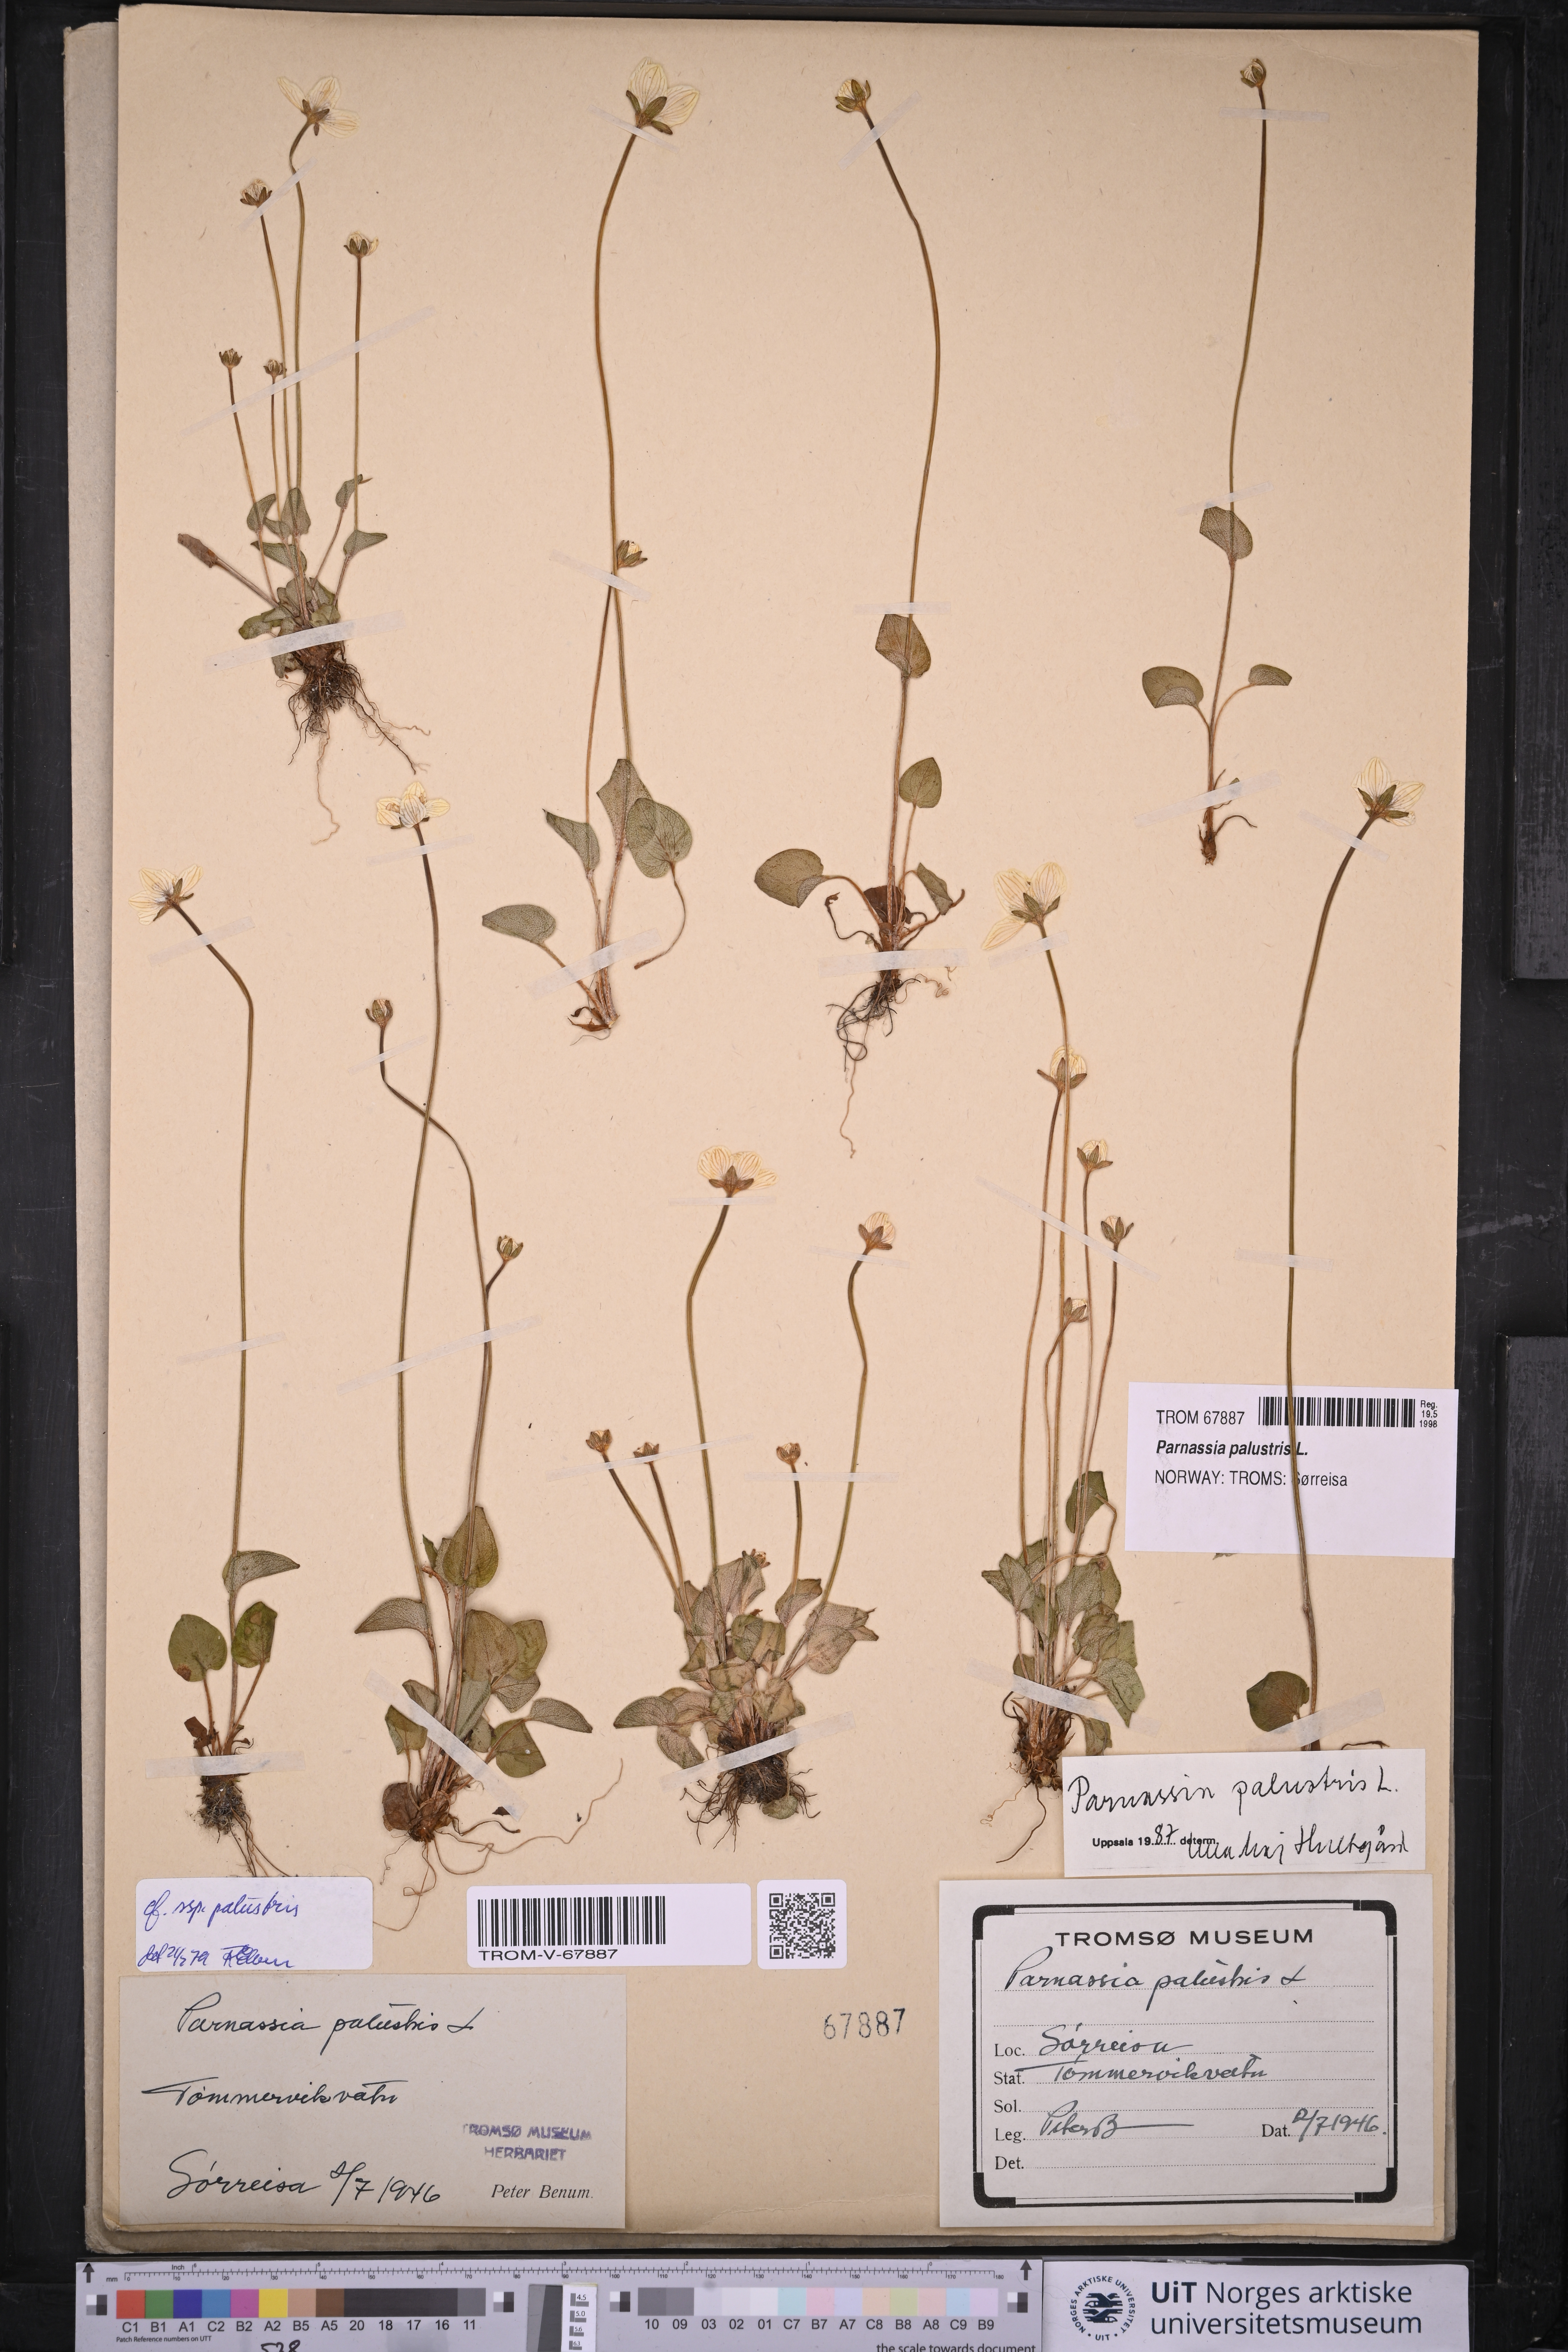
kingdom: Plantae
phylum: Tracheophyta
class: Magnoliopsida
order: Celastrales
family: Parnassiaceae
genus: Parnassia
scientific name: Parnassia palustris
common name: Grass-of-parnassus
